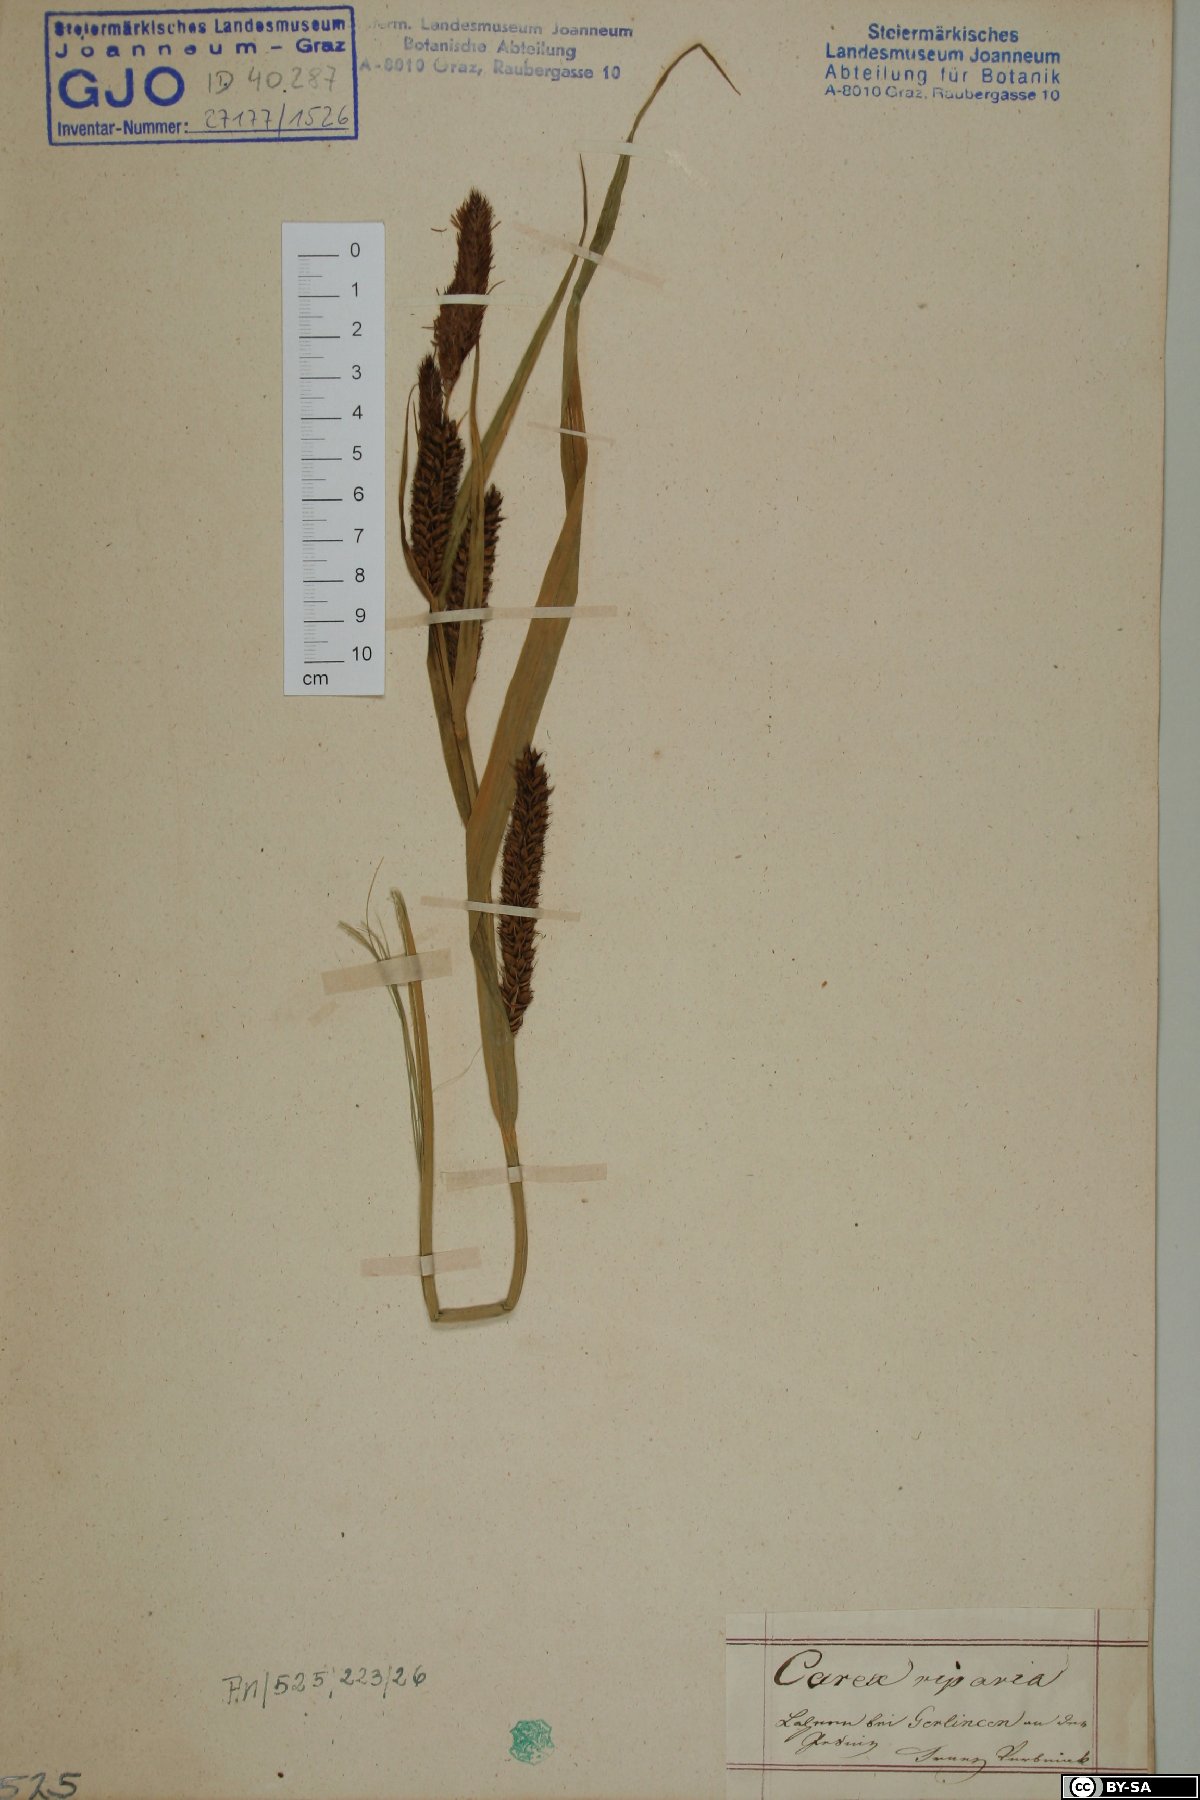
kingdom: Plantae
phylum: Tracheophyta
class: Liliopsida
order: Poales
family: Cyperaceae
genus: Carex
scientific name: Carex riparia
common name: Greater pond-sedge
